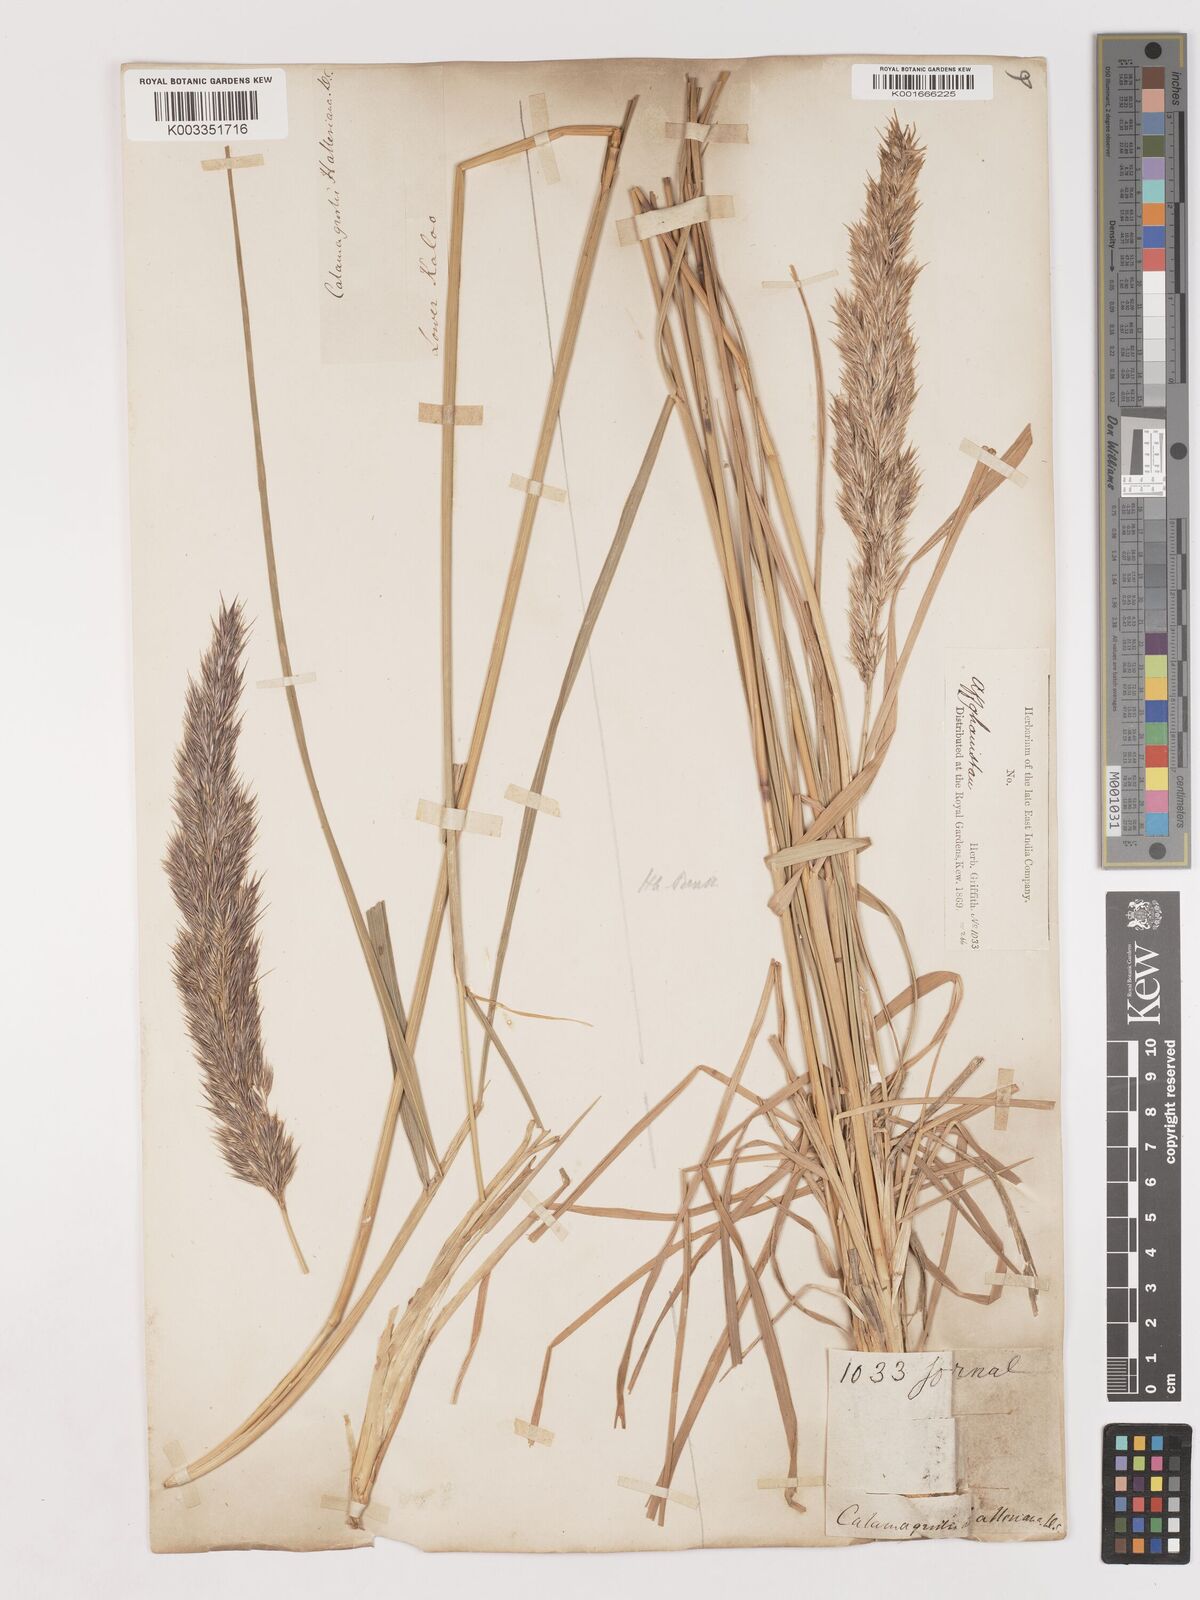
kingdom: Plantae
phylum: Tracheophyta
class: Liliopsida
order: Poales
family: Poaceae
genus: Calamagrostis
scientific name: Calamagrostis epigejos
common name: Wood small-reed
